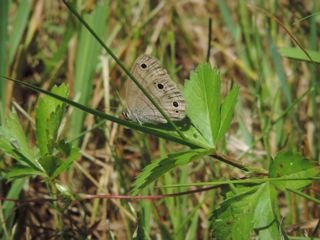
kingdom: Animalia
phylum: Arthropoda
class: Insecta
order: Lepidoptera
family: Nymphalidae
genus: Euptychia
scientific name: Euptychia cymela
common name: Little Wood Satyr
